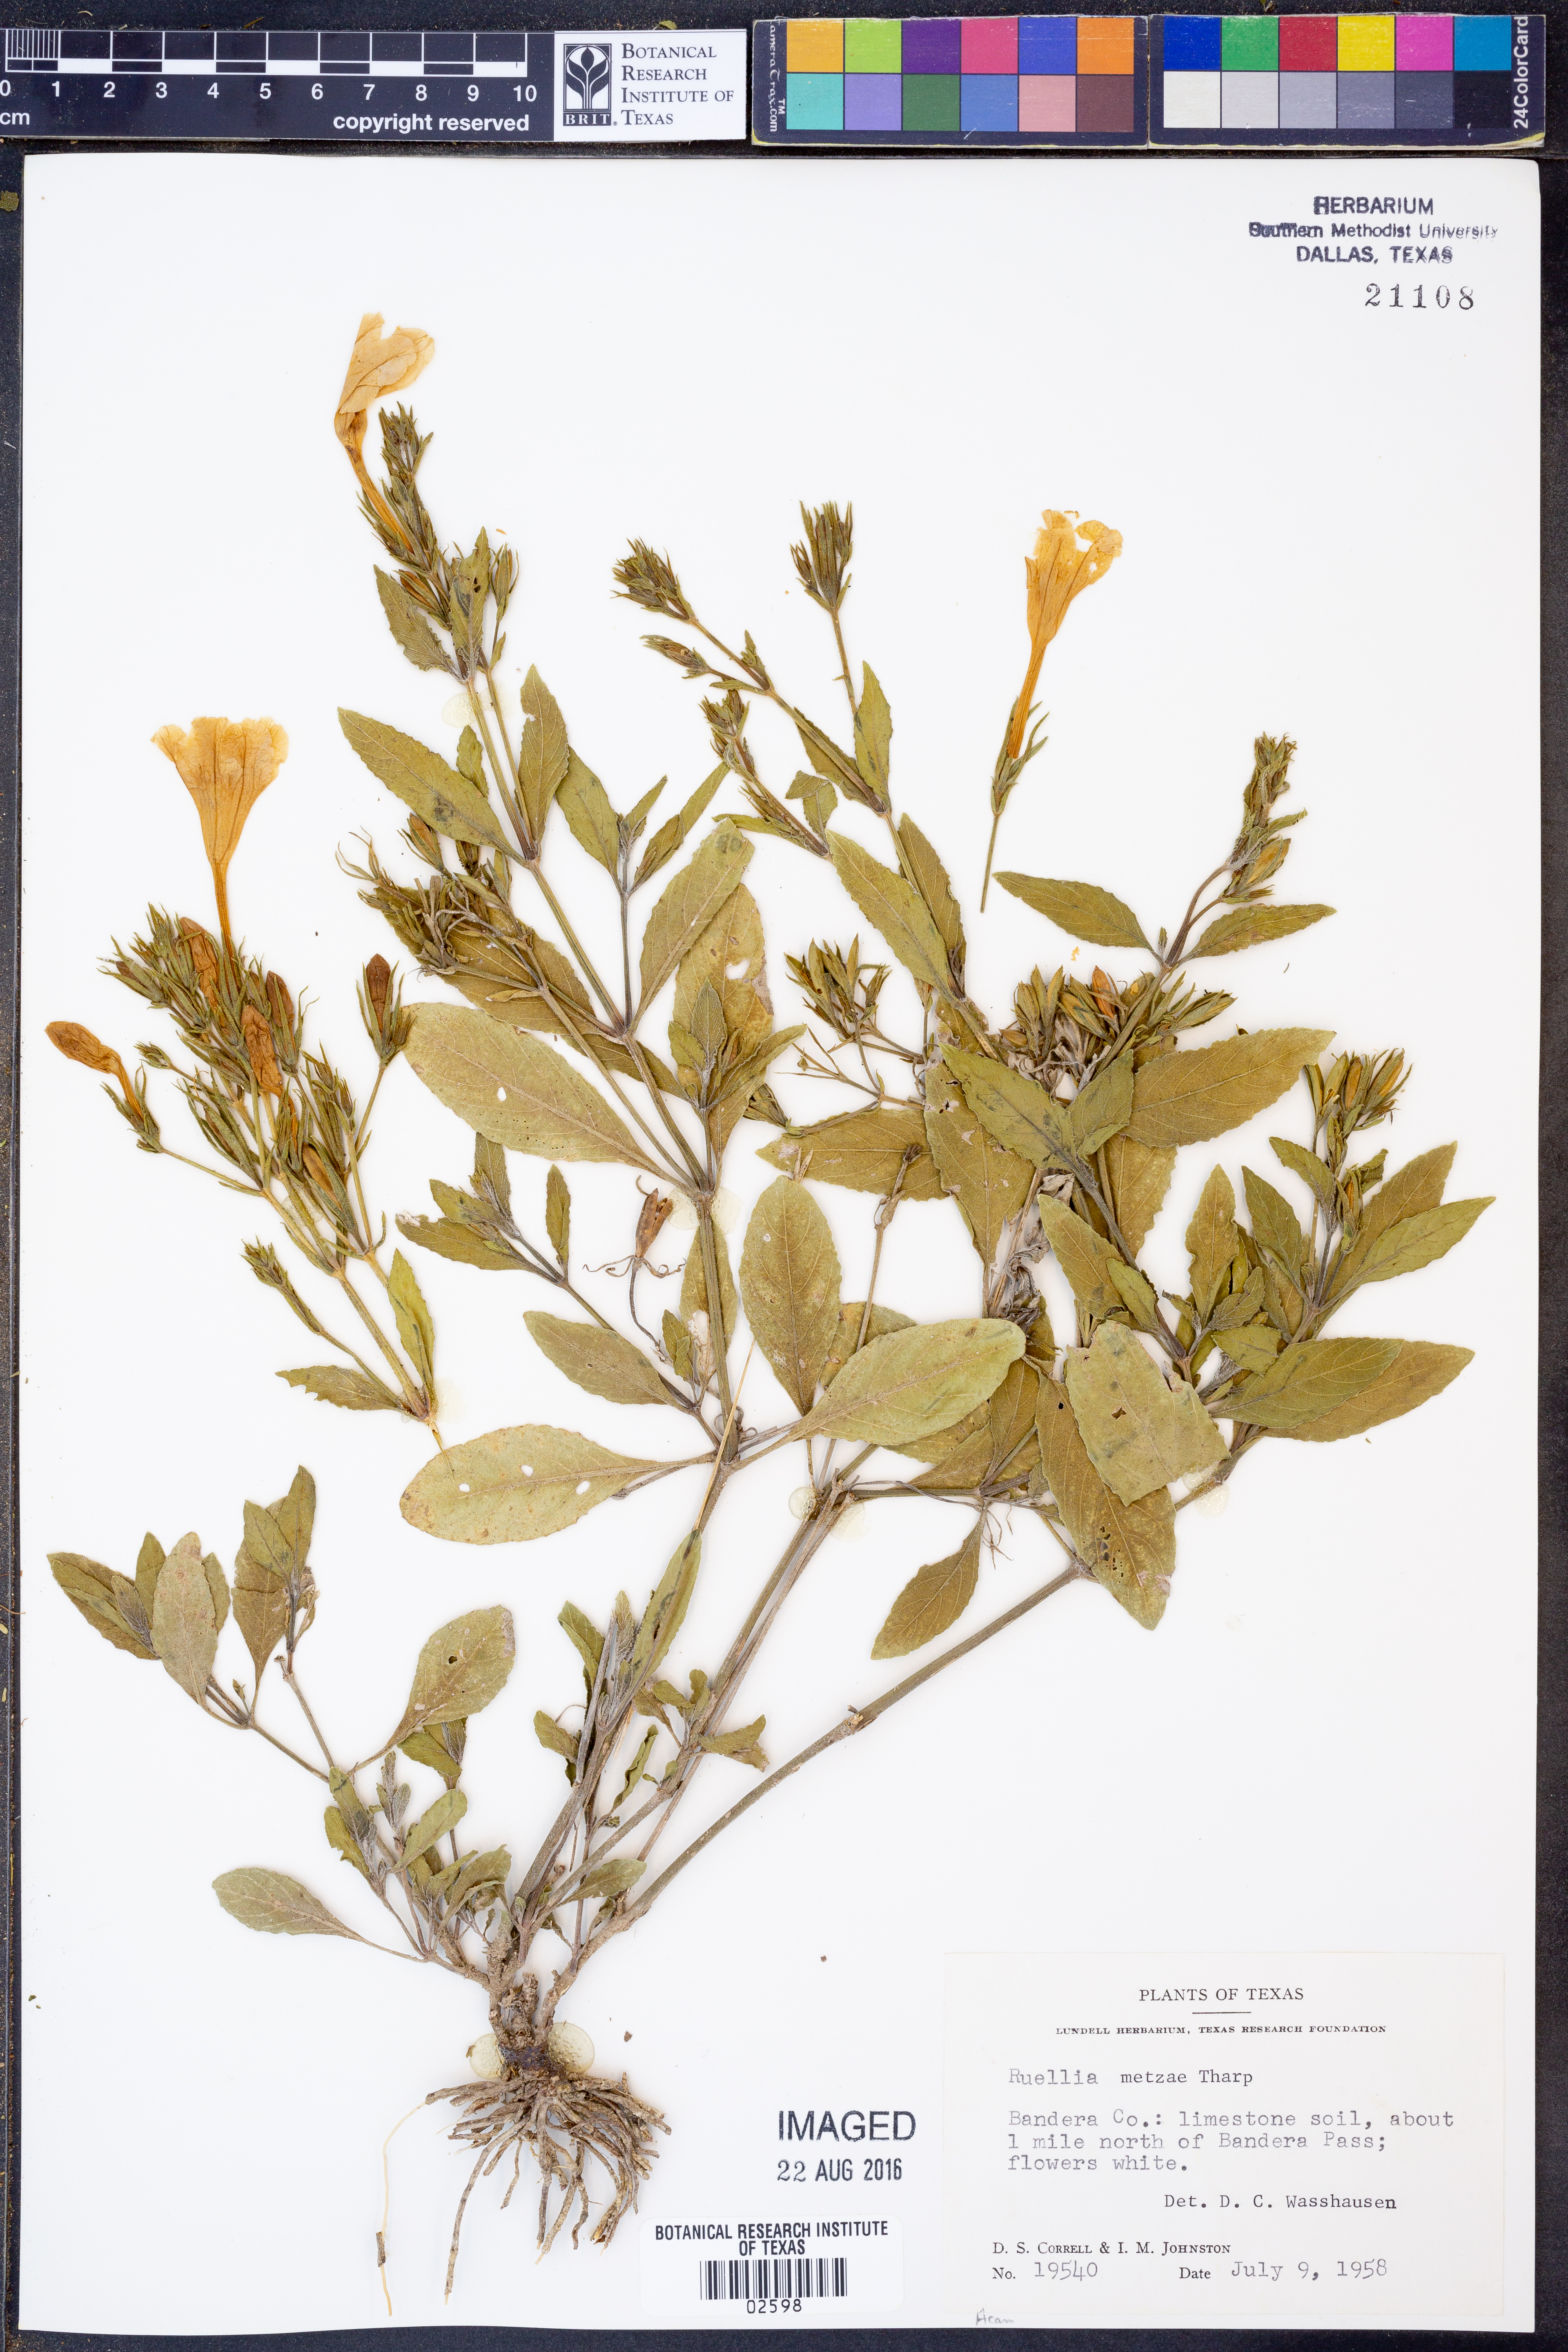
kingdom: Plantae
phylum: Tracheophyta
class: Magnoliopsida
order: Lamiales
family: Acanthaceae
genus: Ruellia
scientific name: Ruellia metzae
